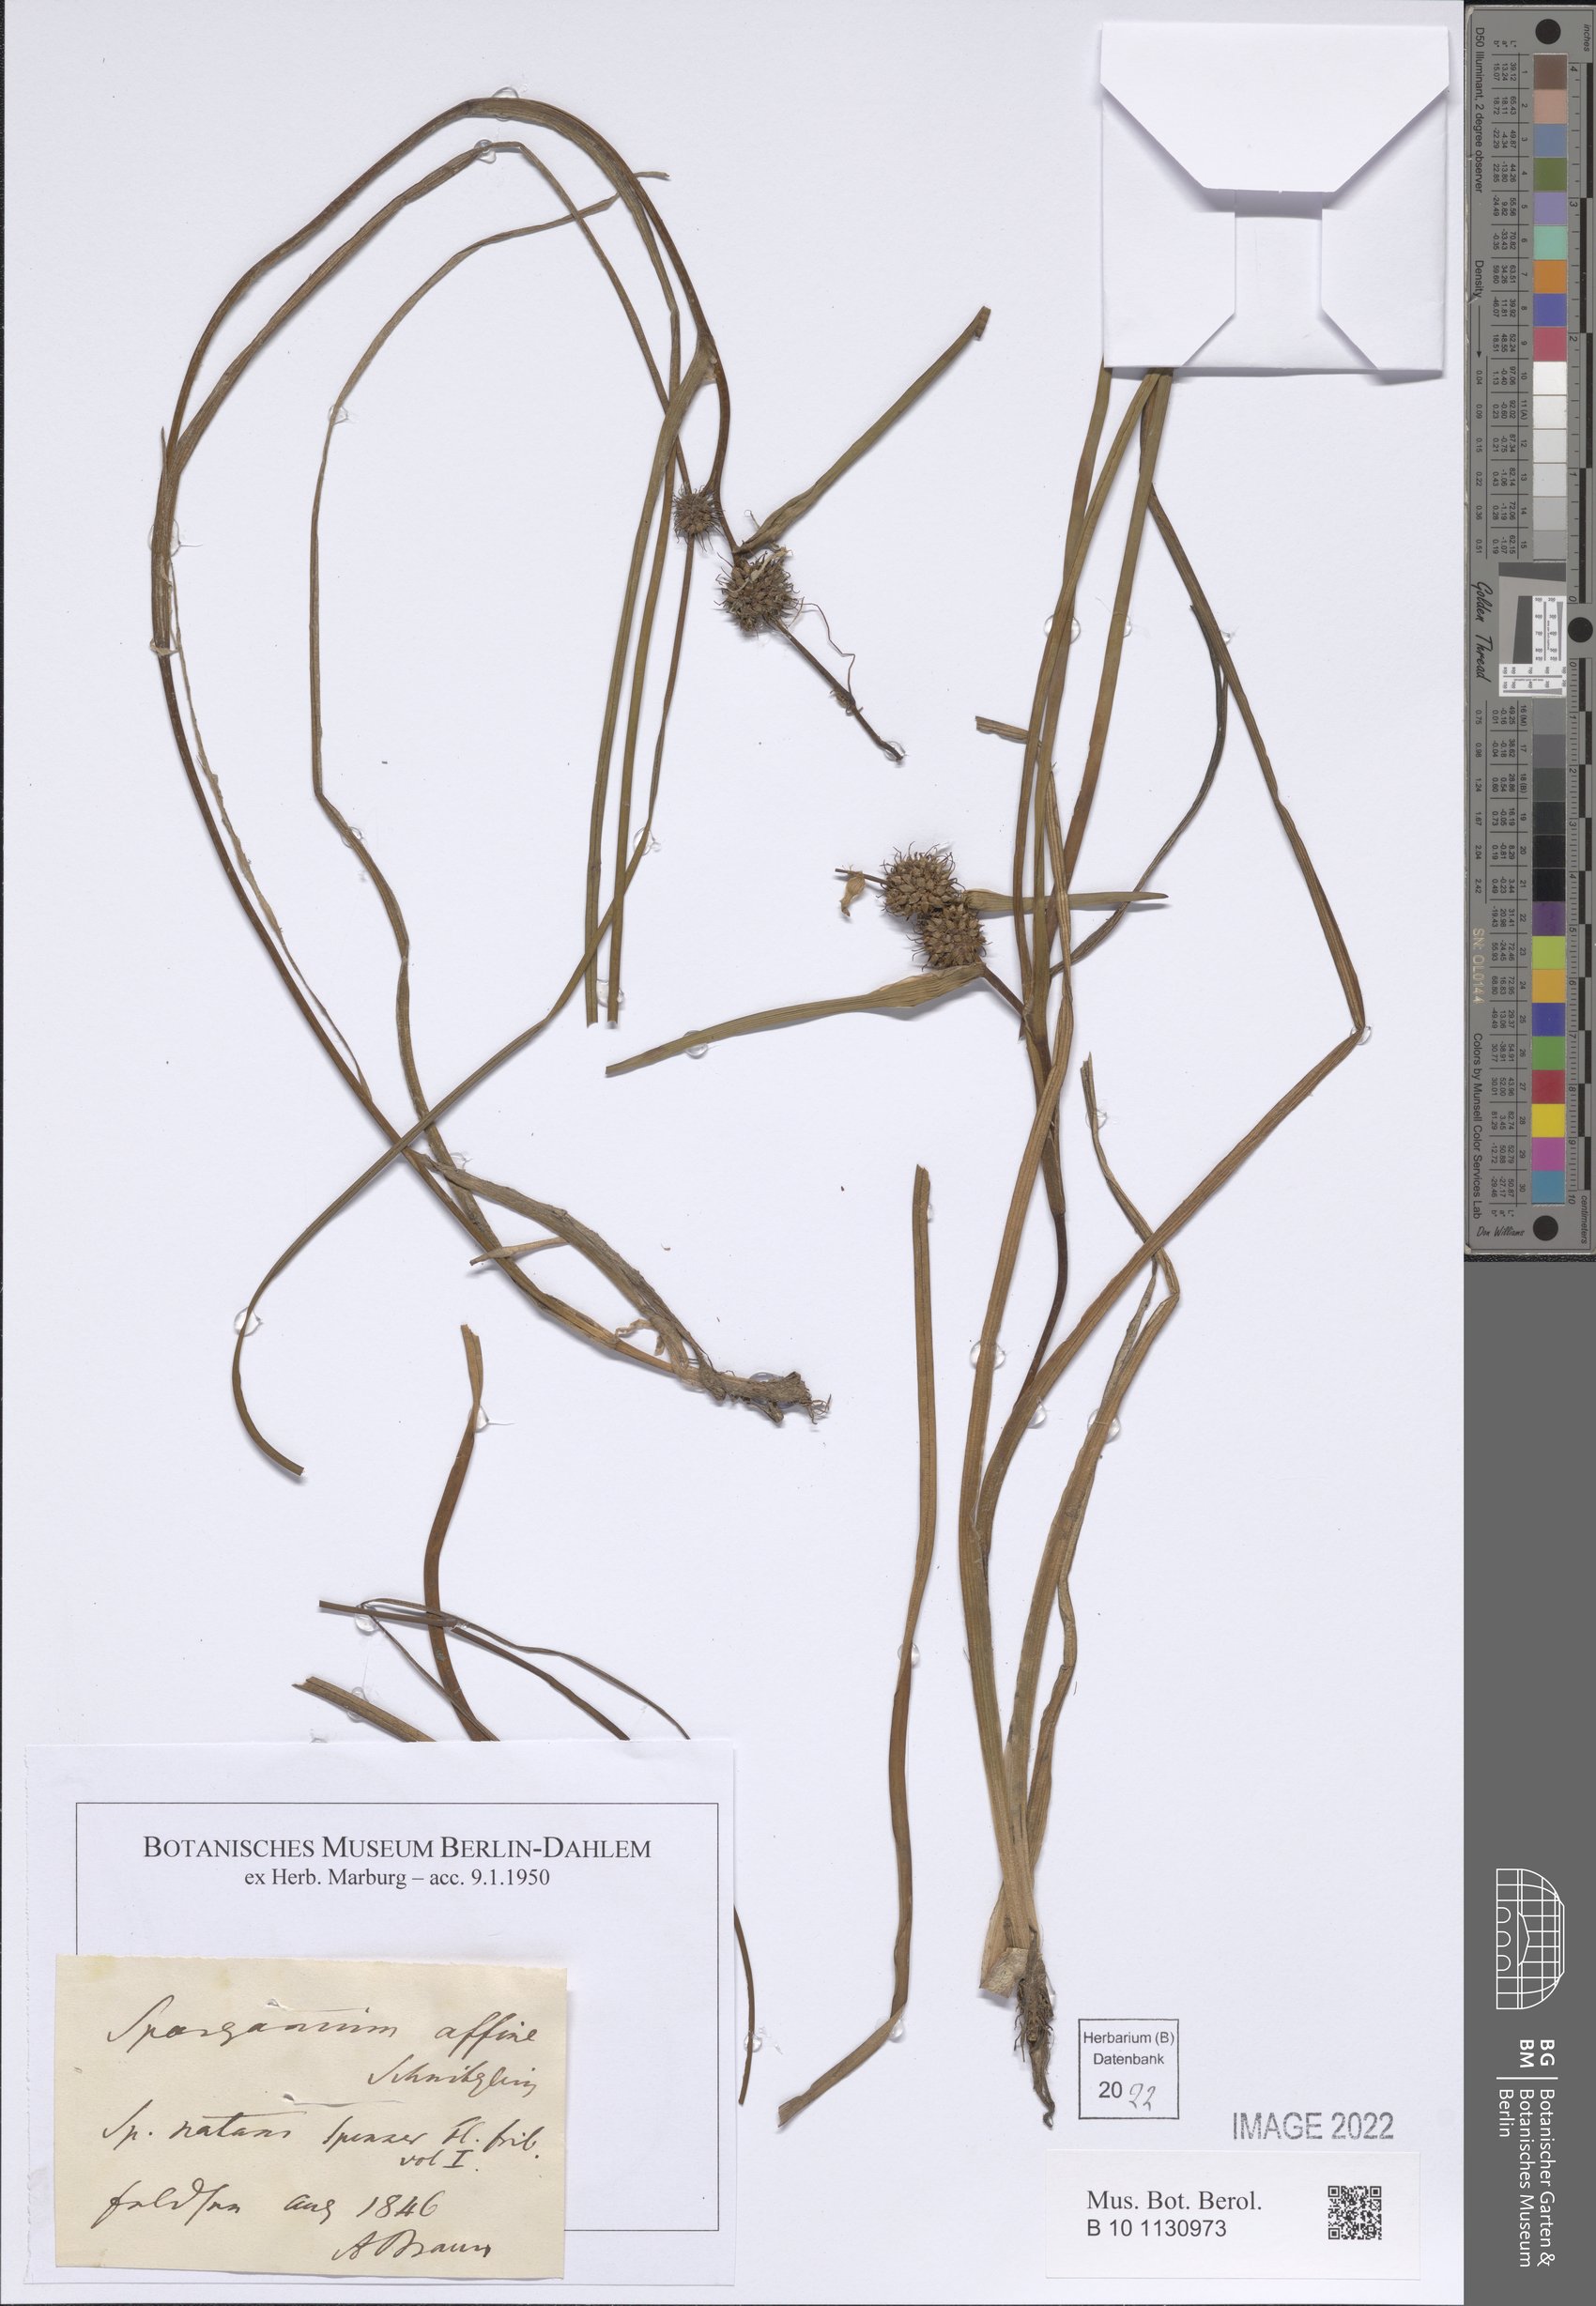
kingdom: Plantae
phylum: Tracheophyta
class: Liliopsida
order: Poales
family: Typhaceae
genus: Sparganium
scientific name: Sparganium angustifolium
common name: Floating bur-reed
